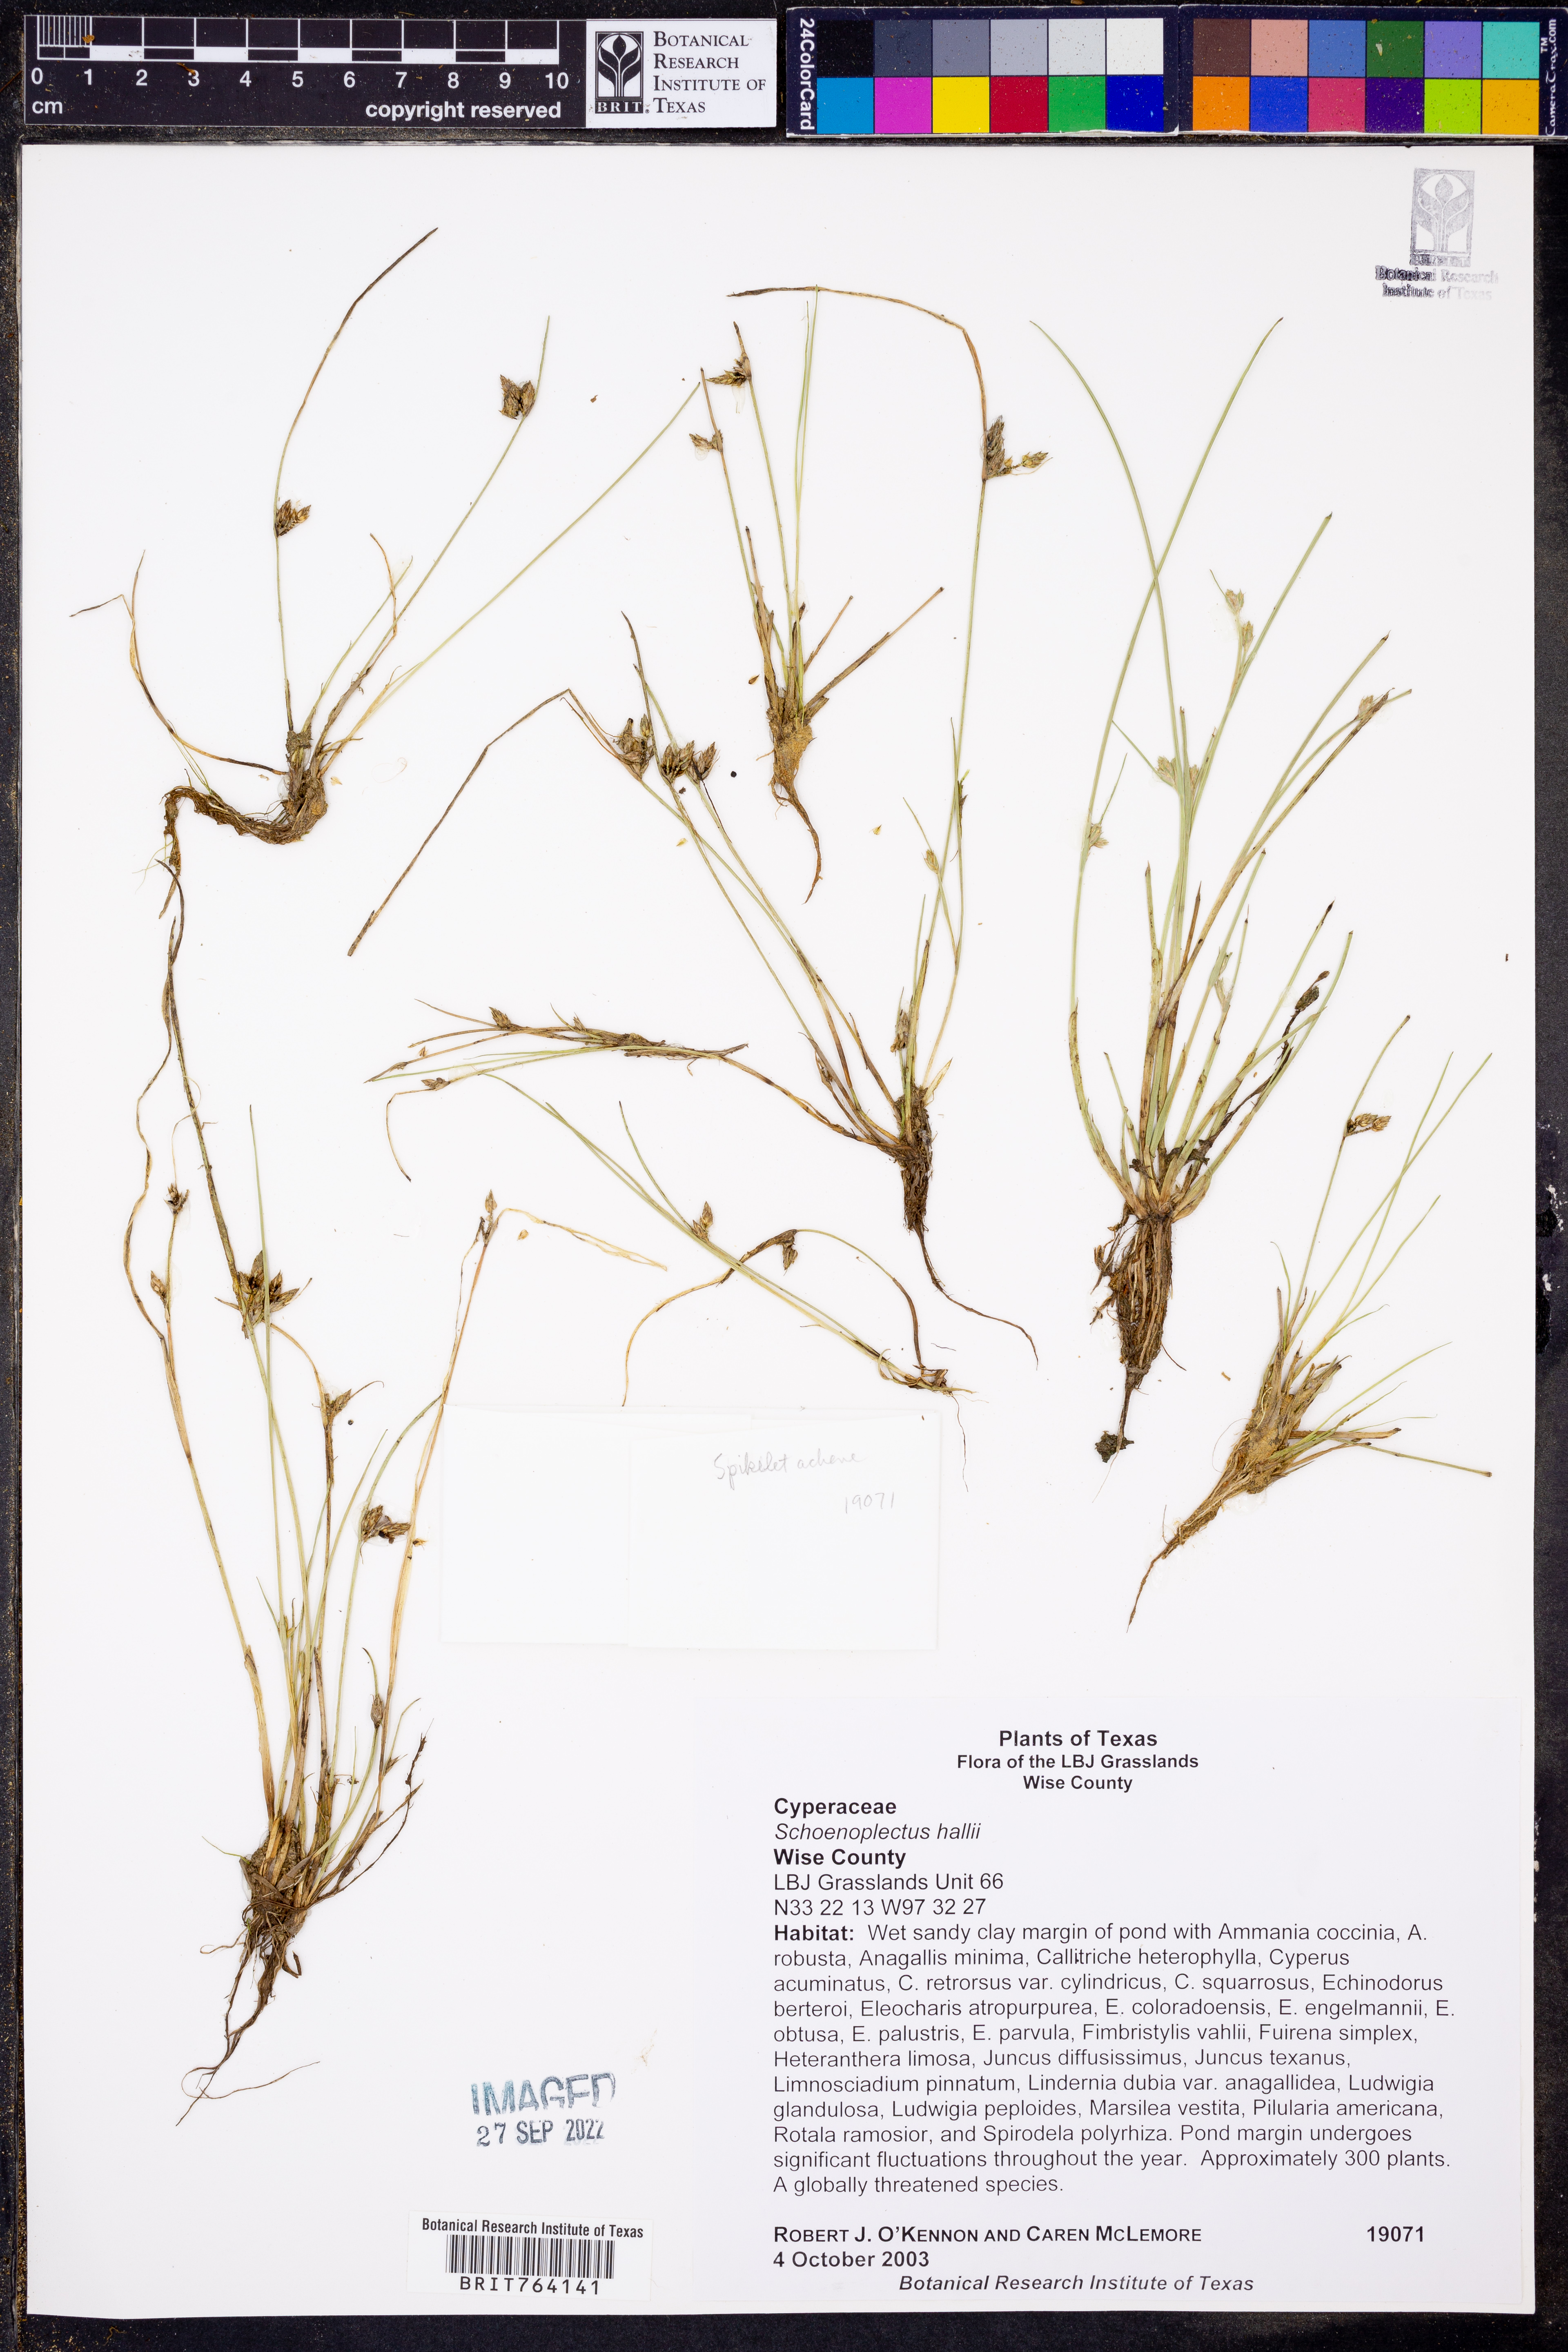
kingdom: Plantae
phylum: Tracheophyta
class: Liliopsida
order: Poales
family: Cyperaceae
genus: Schoenoplectiella
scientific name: Schoenoplectiella hallii
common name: Hall's bullrush
